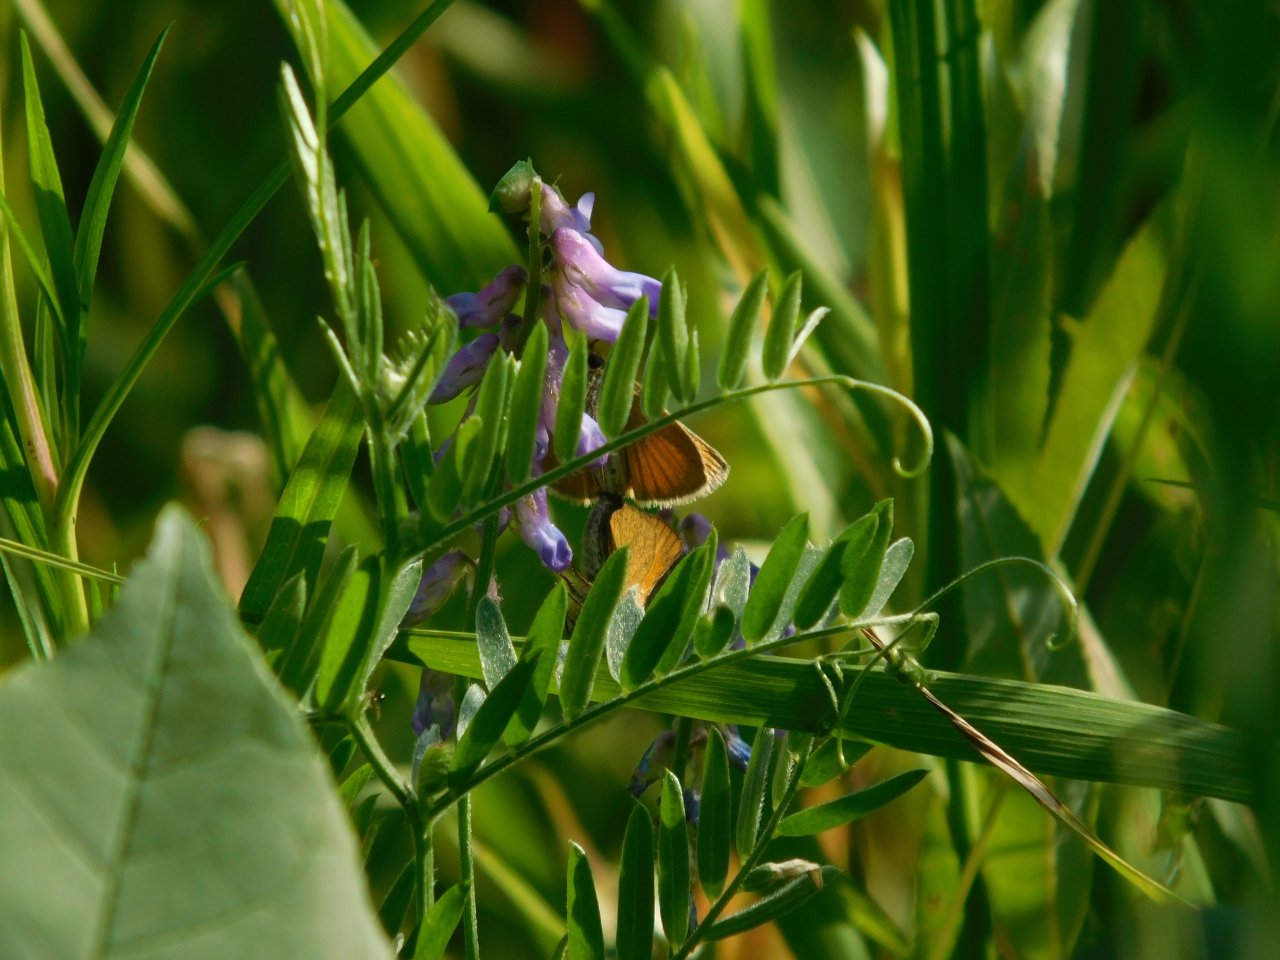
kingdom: Animalia
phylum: Arthropoda
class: Insecta
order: Lepidoptera
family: Hesperiidae
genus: Thymelicus
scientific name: Thymelicus lineola
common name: European Skipper
